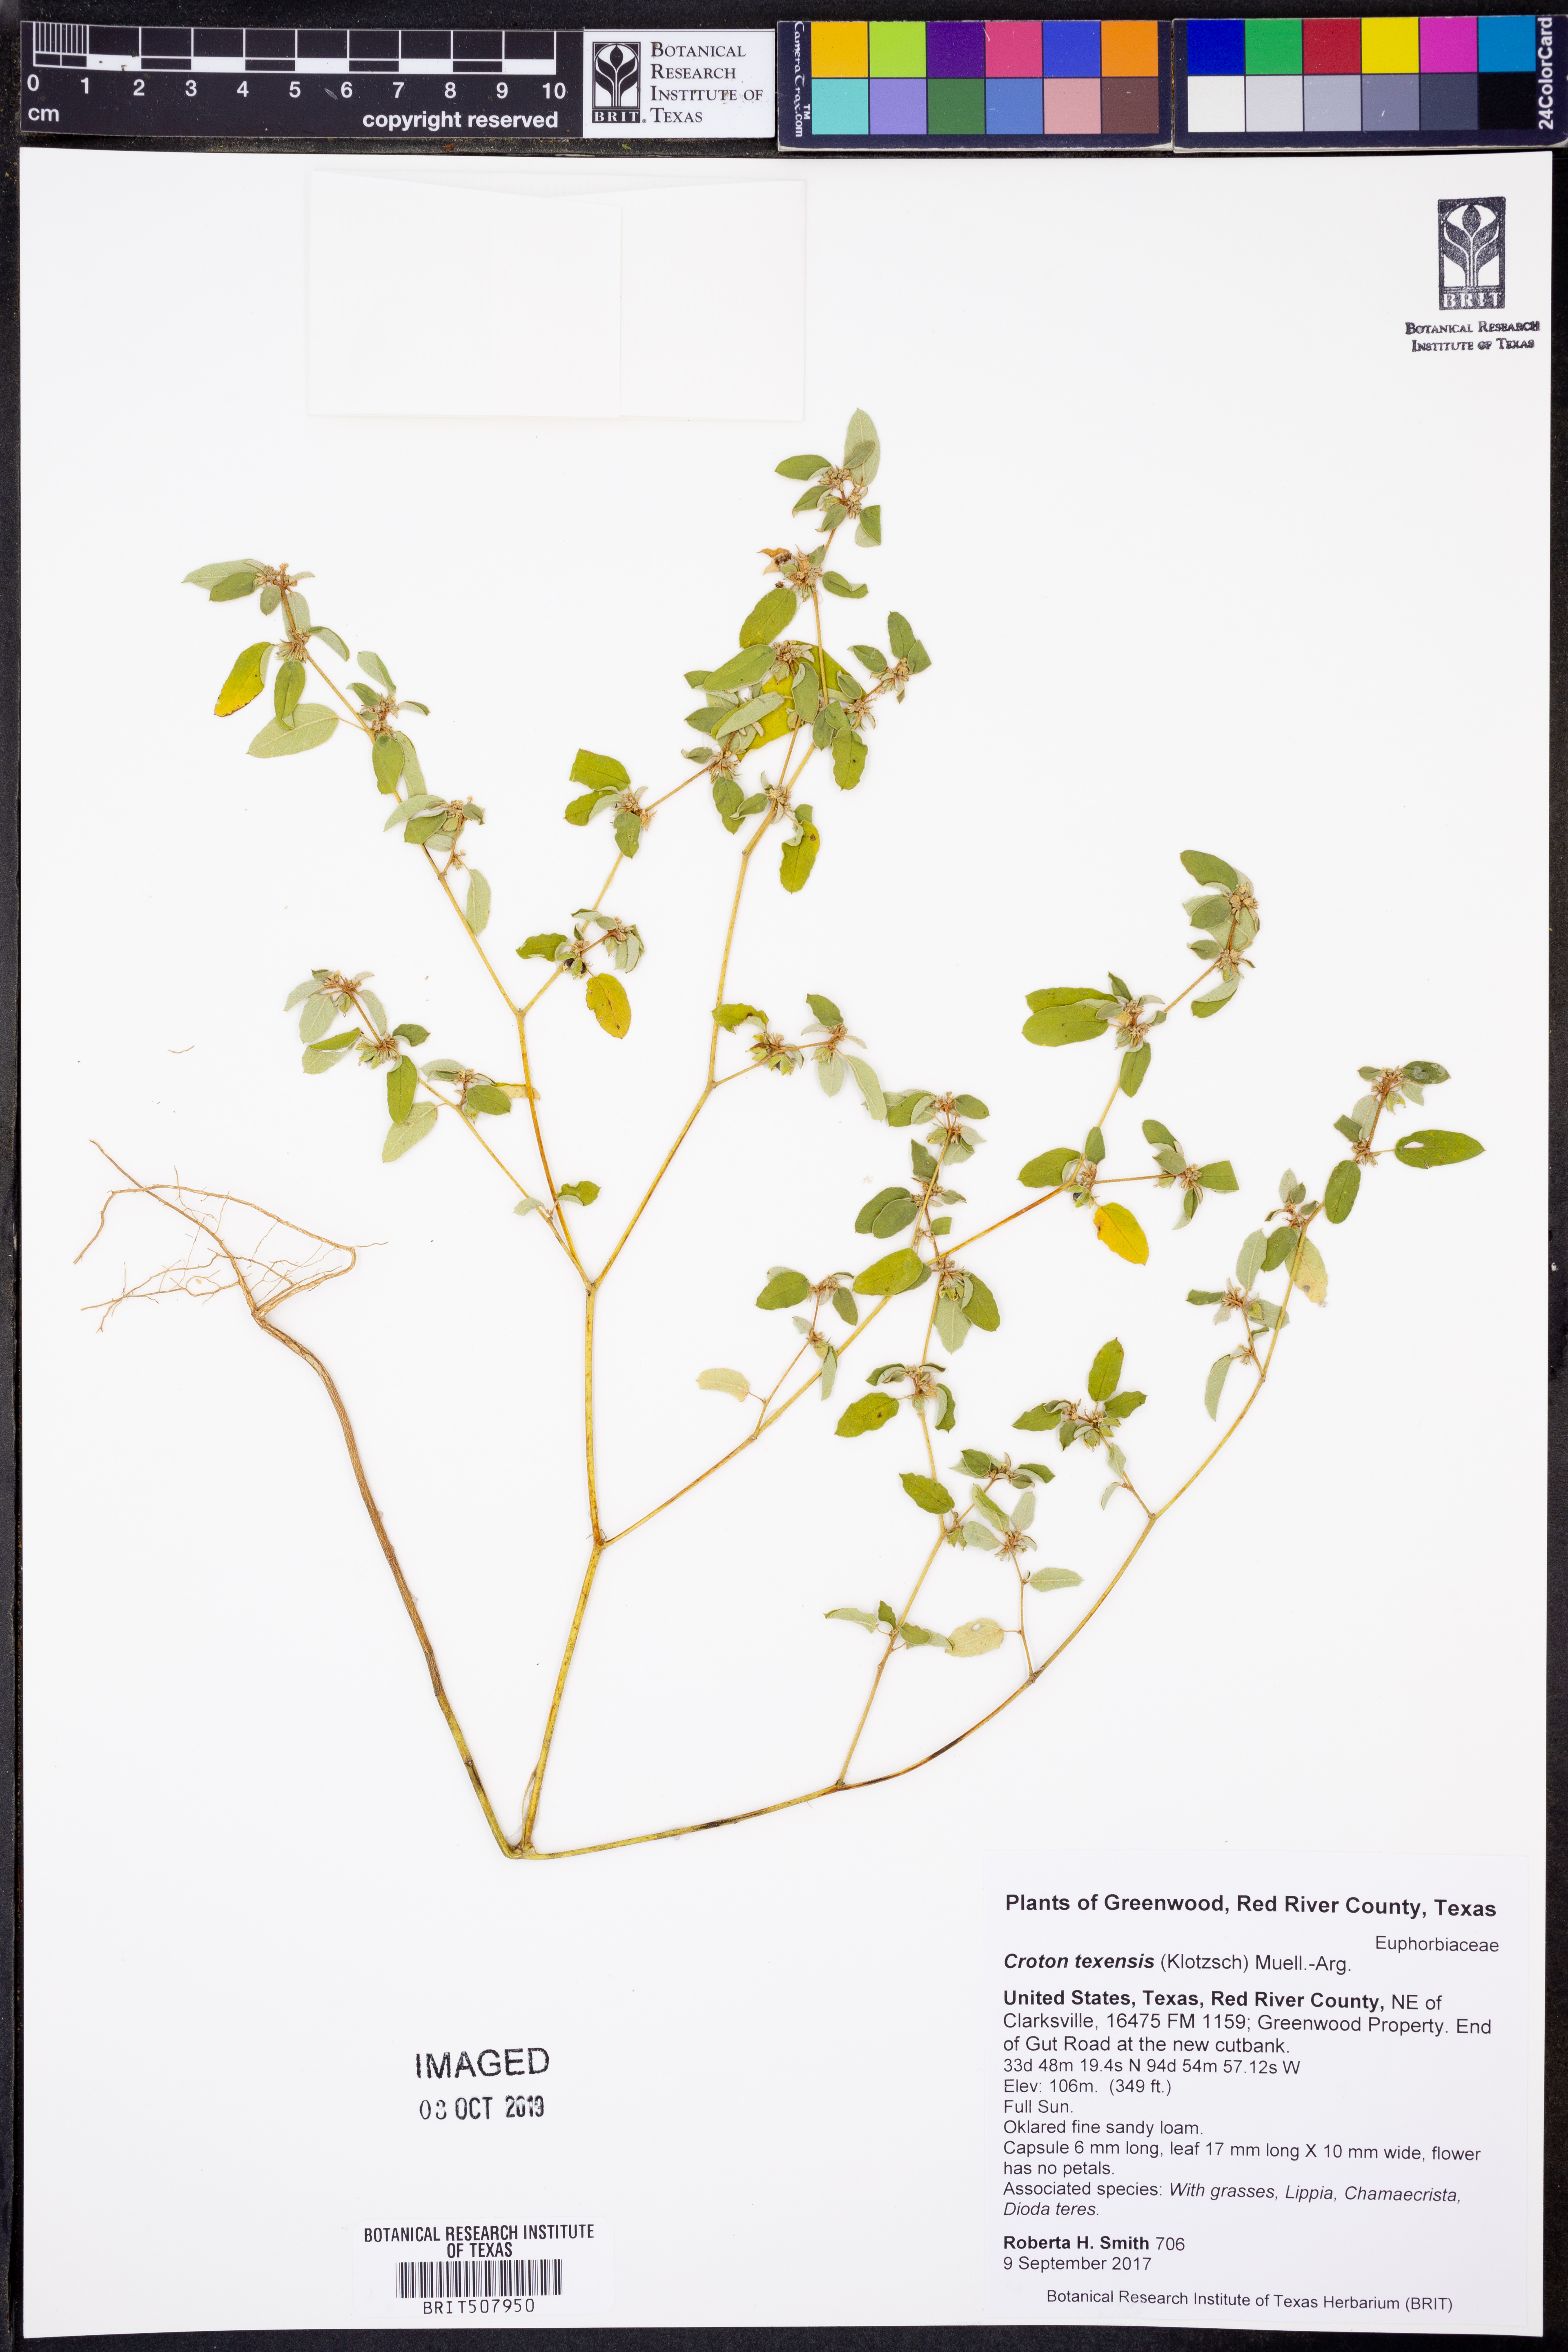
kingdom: Plantae
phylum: Tracheophyta
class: Magnoliopsida
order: Malpighiales
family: Euphorbiaceae
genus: Croton
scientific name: Croton texensis
